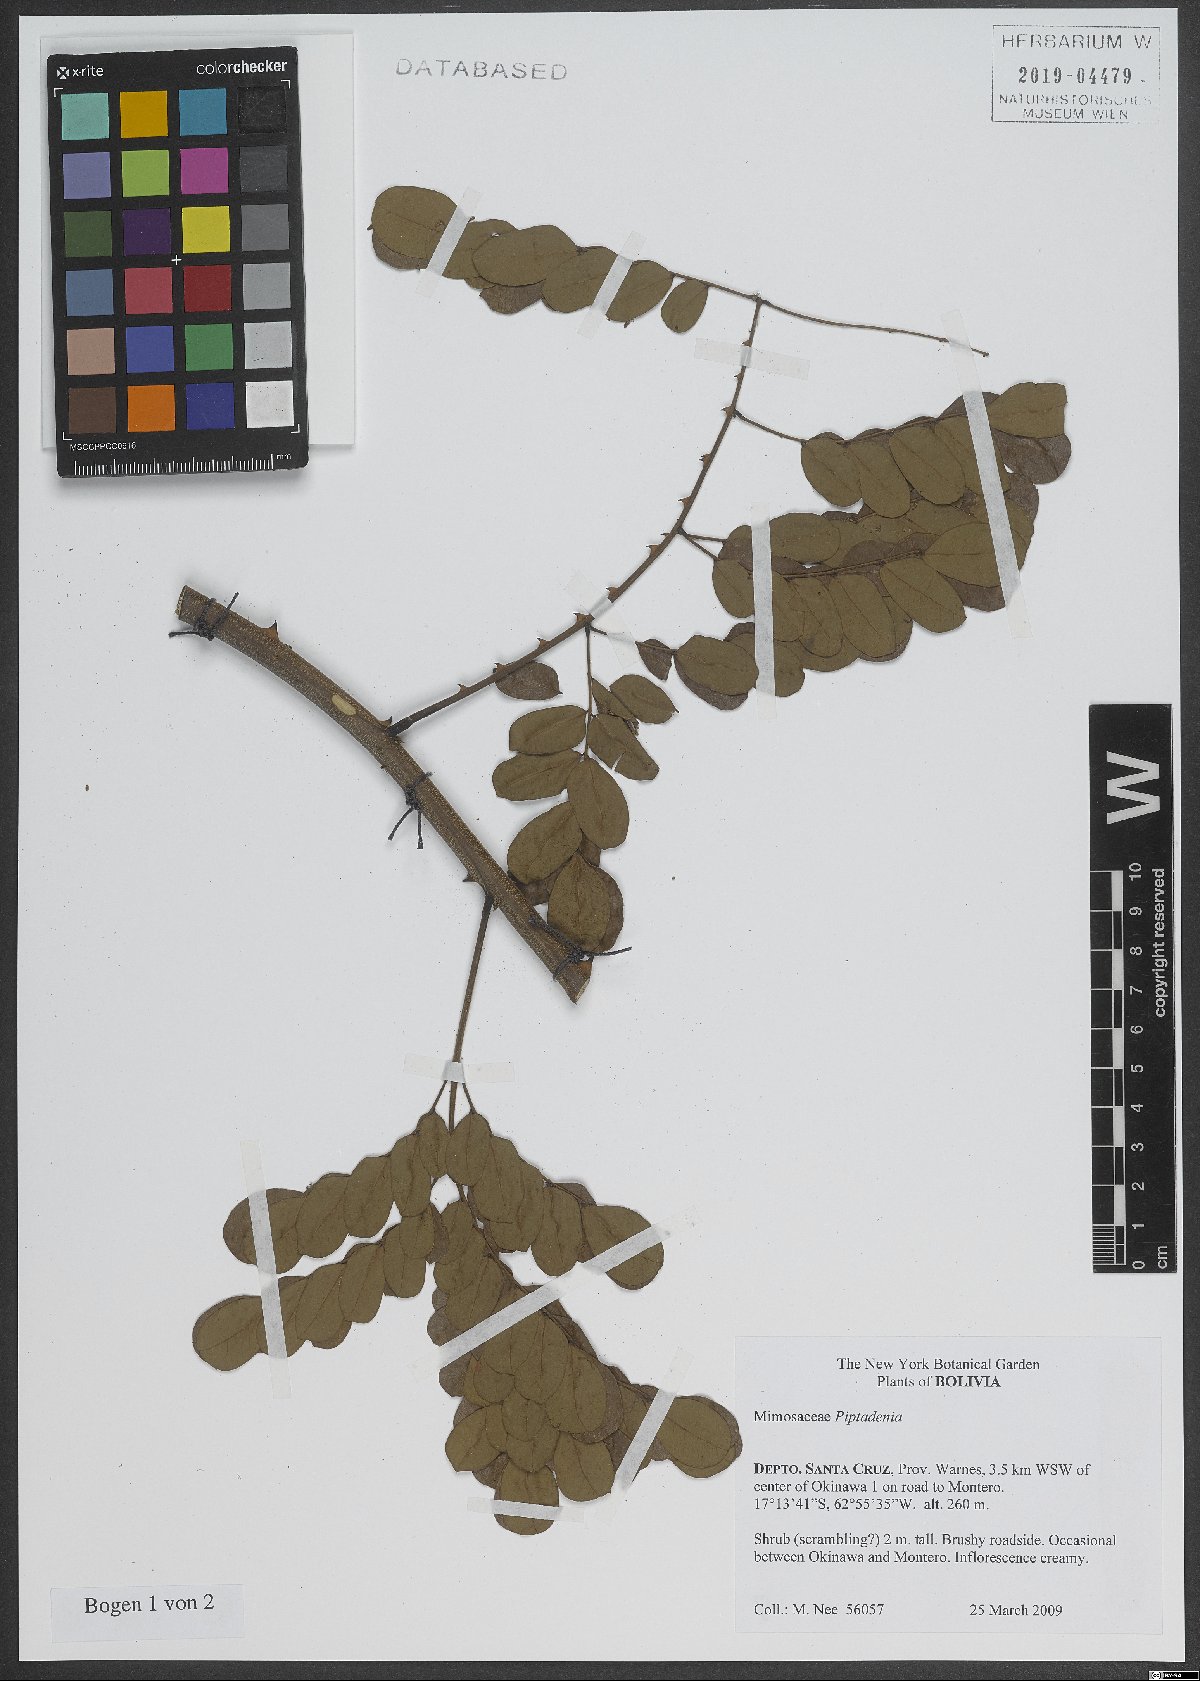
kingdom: Plantae
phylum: Tracheophyta
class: Magnoliopsida
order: Fabales
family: Fabaceae
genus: Piptadenia
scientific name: Piptadenia
